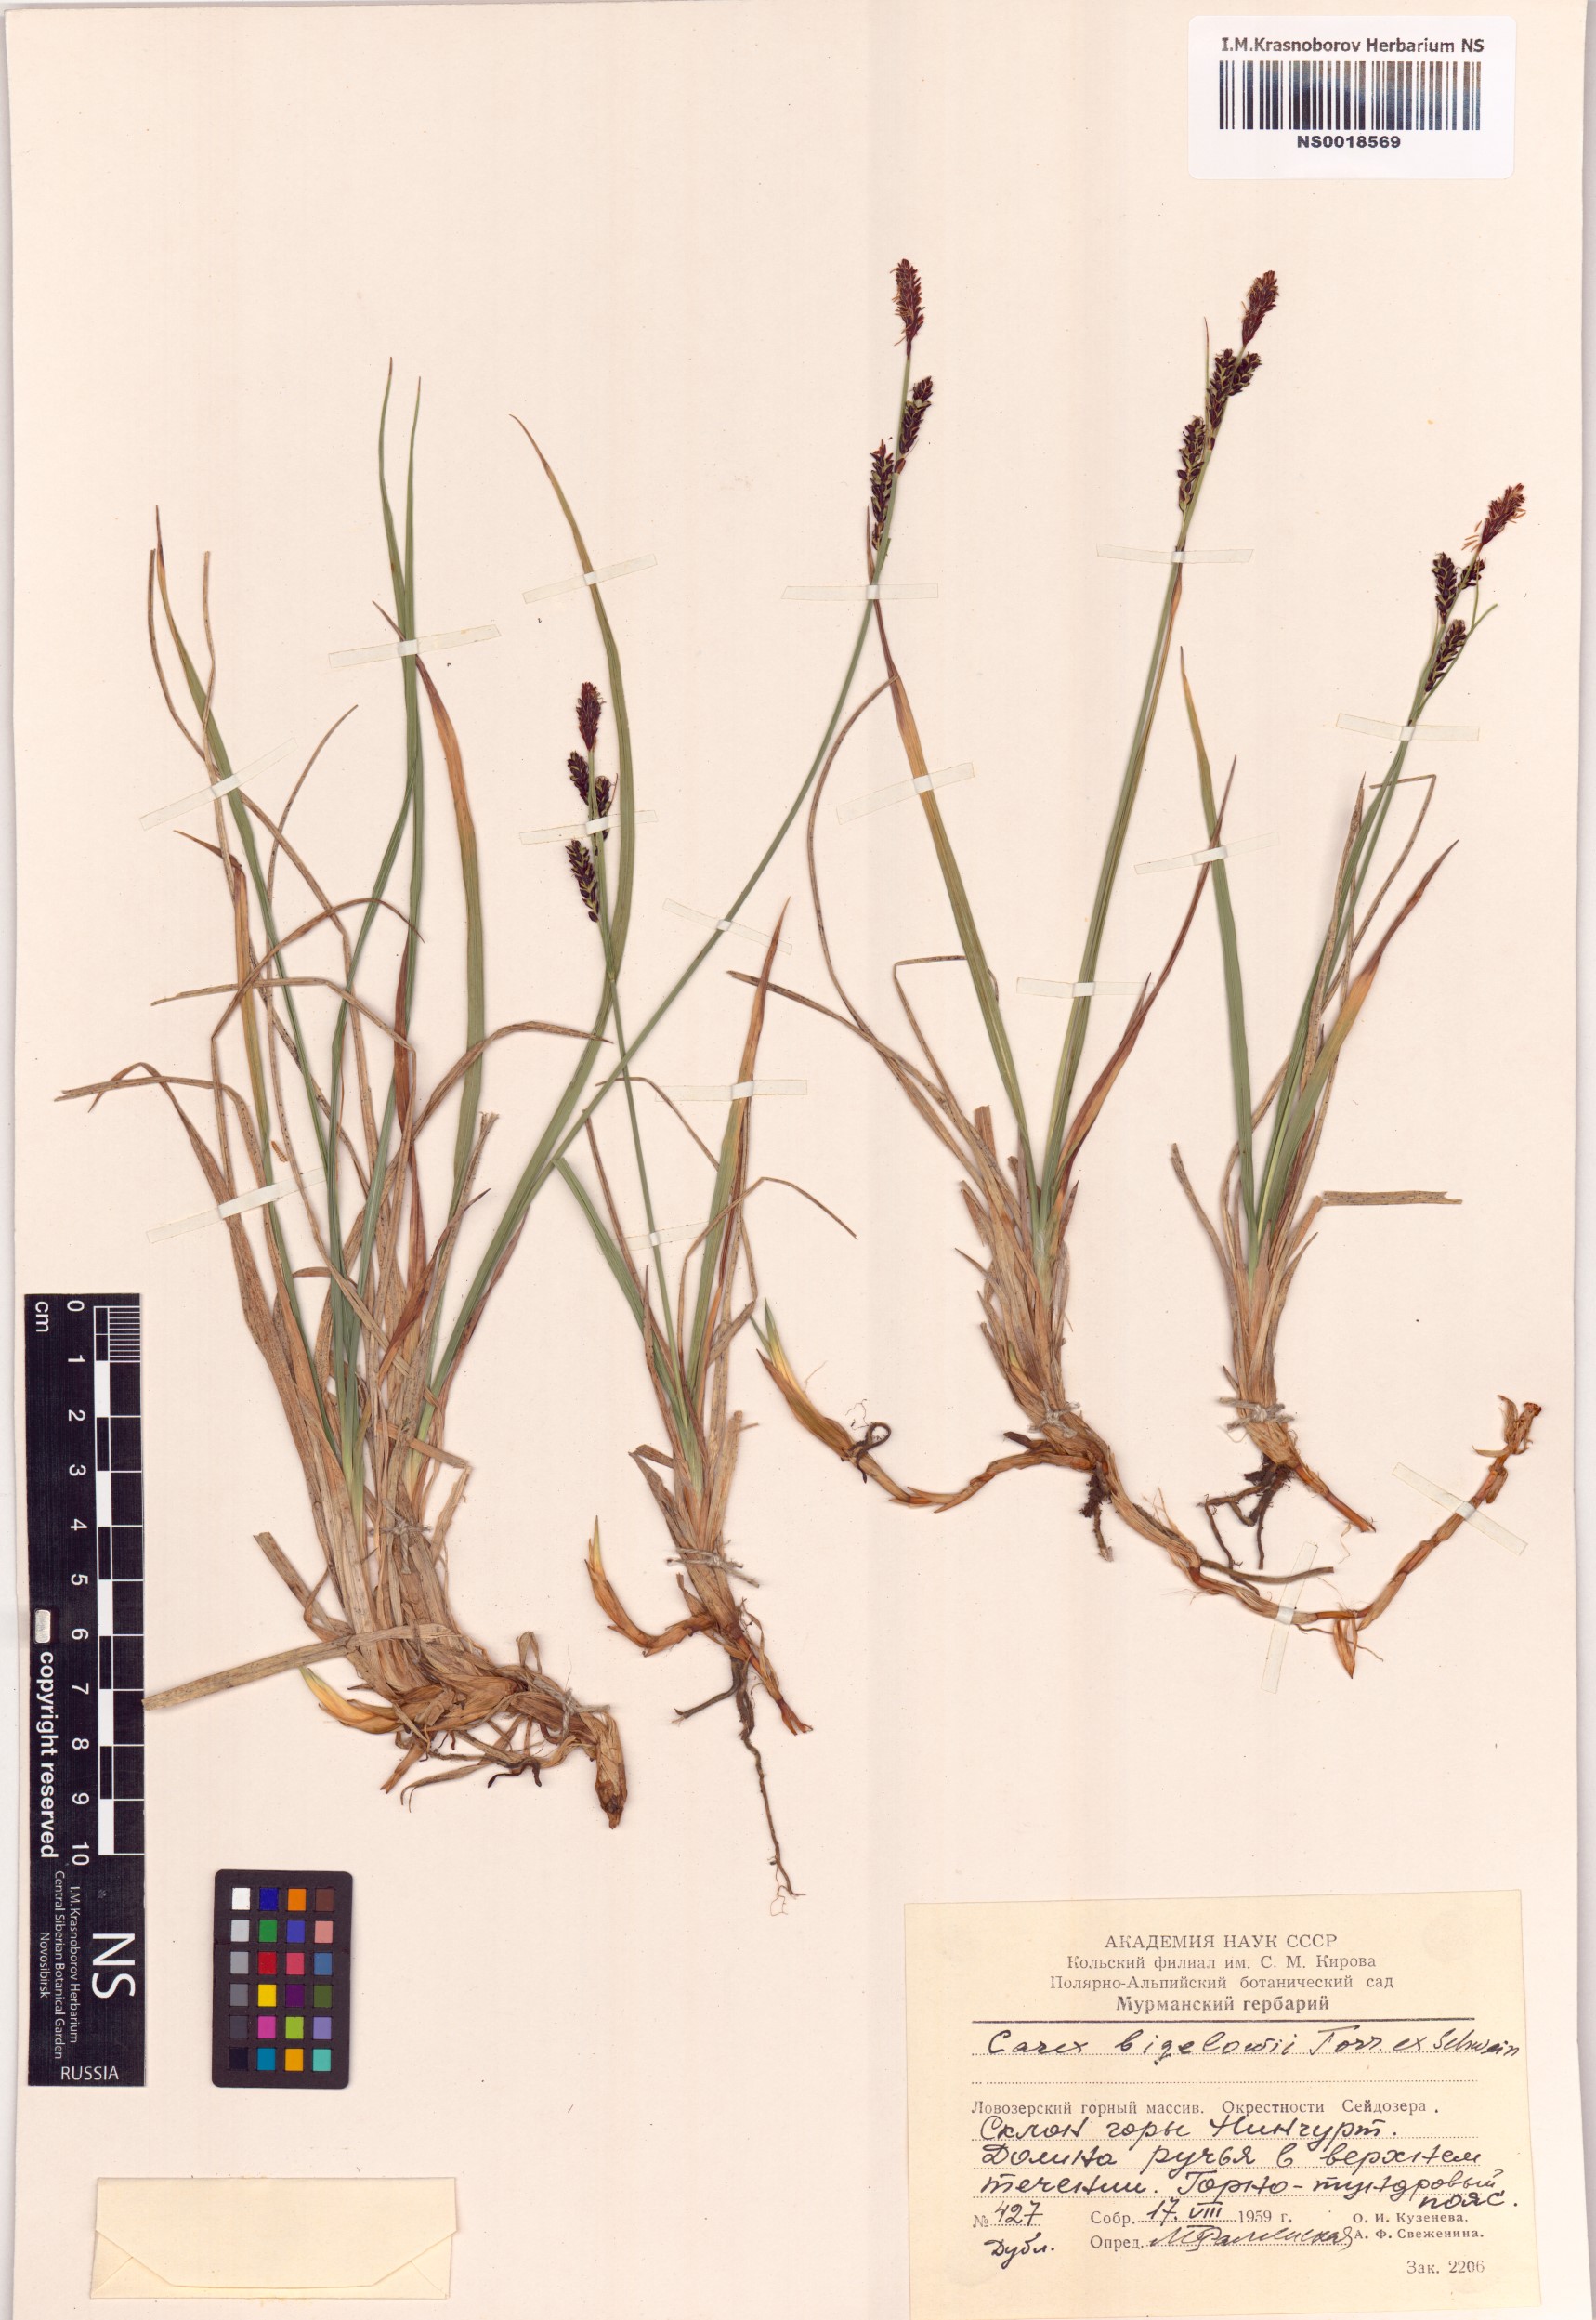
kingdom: Plantae
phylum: Tracheophyta
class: Liliopsida
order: Poales
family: Cyperaceae
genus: Carex
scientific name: Carex bigelowii
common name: Stiff sedge
